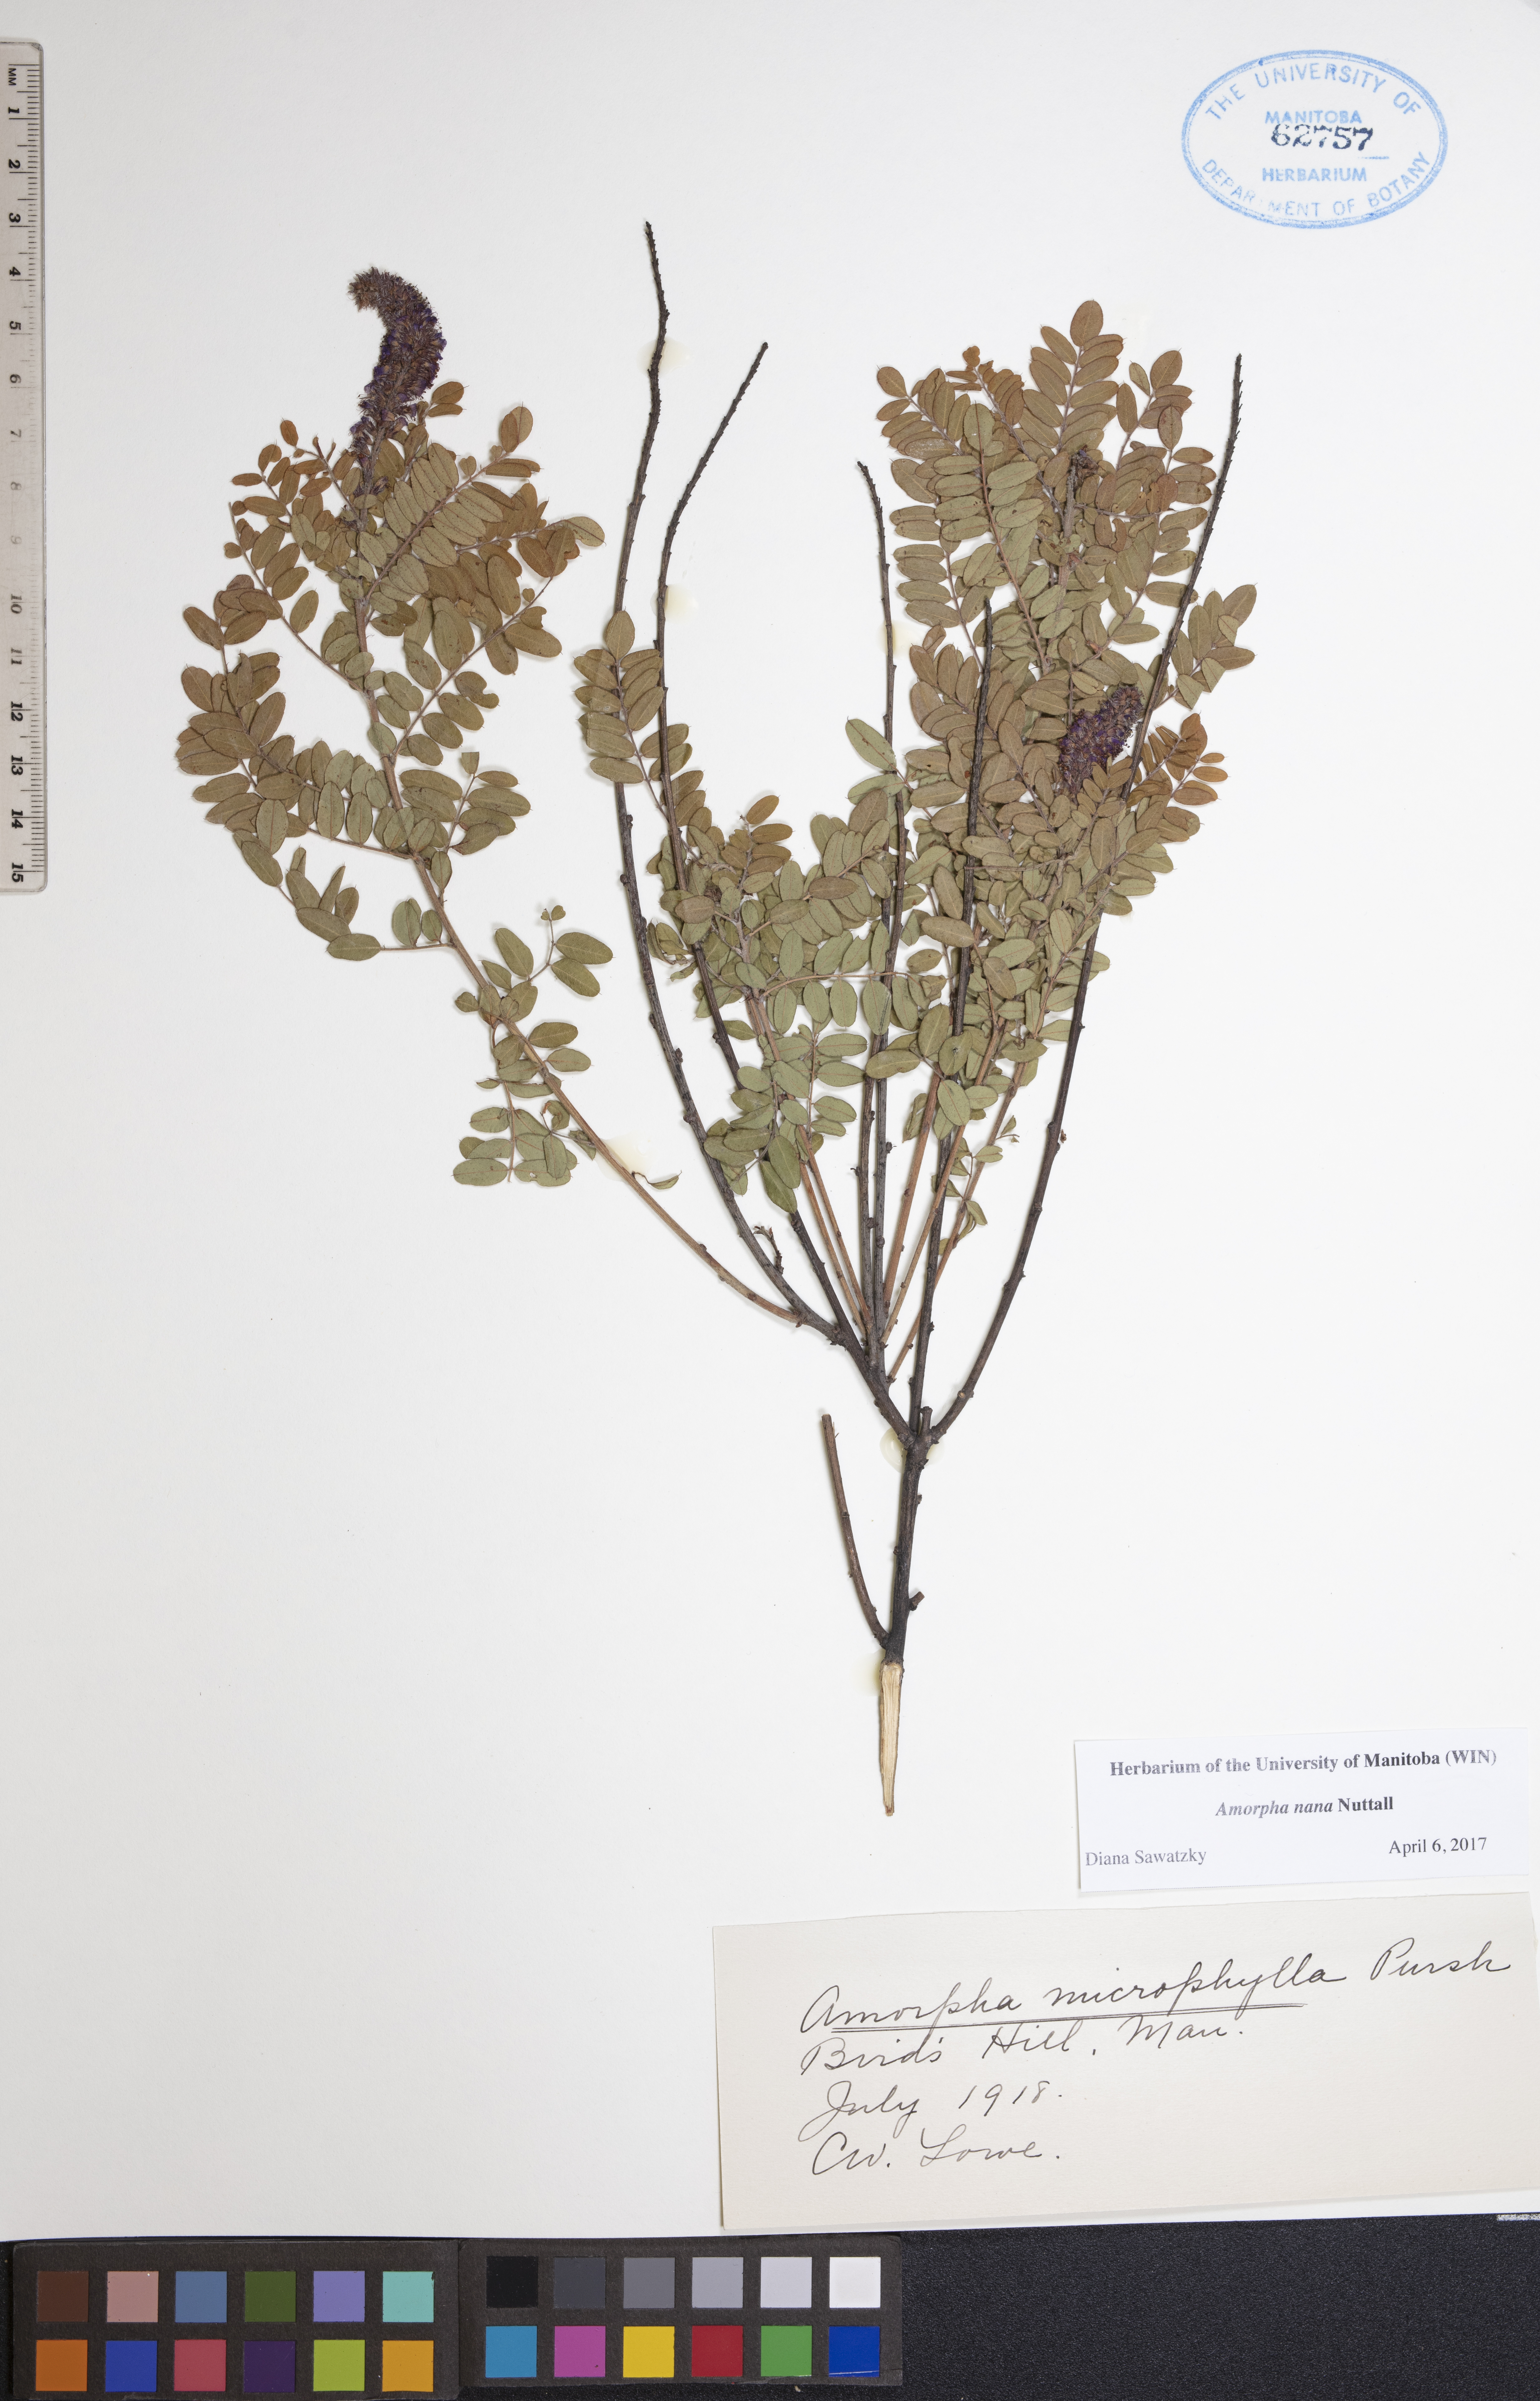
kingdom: Plantae
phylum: Tracheophyta
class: Magnoliopsida
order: Fabales
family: Fabaceae
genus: Amorpha
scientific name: Amorpha nana
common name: Fragrant false indigo
